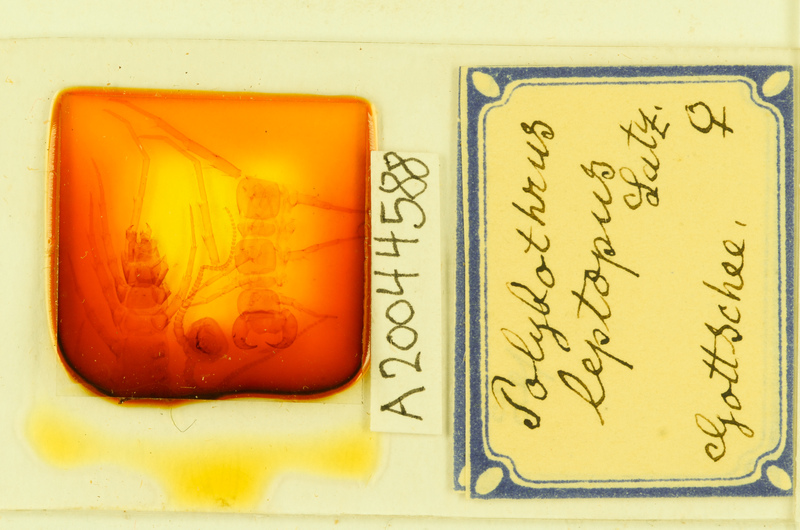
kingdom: Animalia
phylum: Arthropoda
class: Chilopoda
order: Lithobiomorpha
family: Lithobiidae
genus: Polybothrus
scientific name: Polybothrus leptopus
